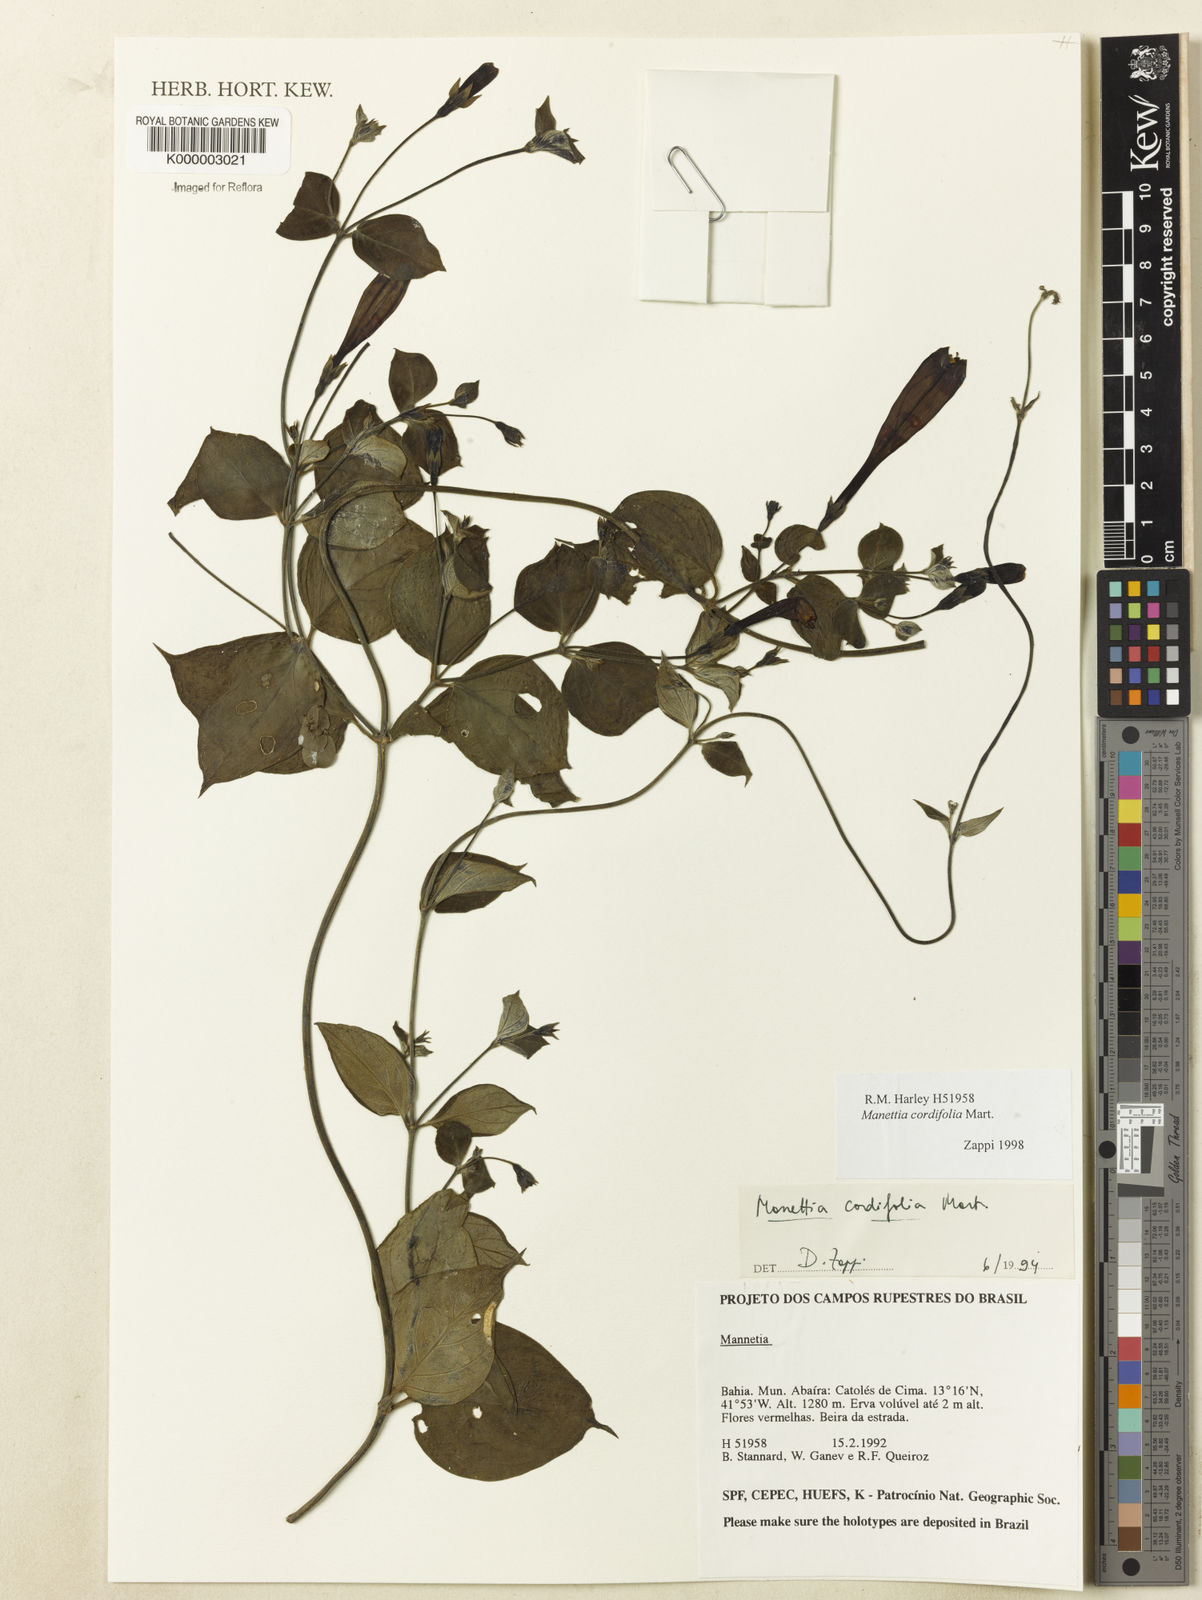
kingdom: Plantae
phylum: Tracheophyta
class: Magnoliopsida
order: Gentianales
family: Rubiaceae
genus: Manettia
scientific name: Manettia cordifolia
